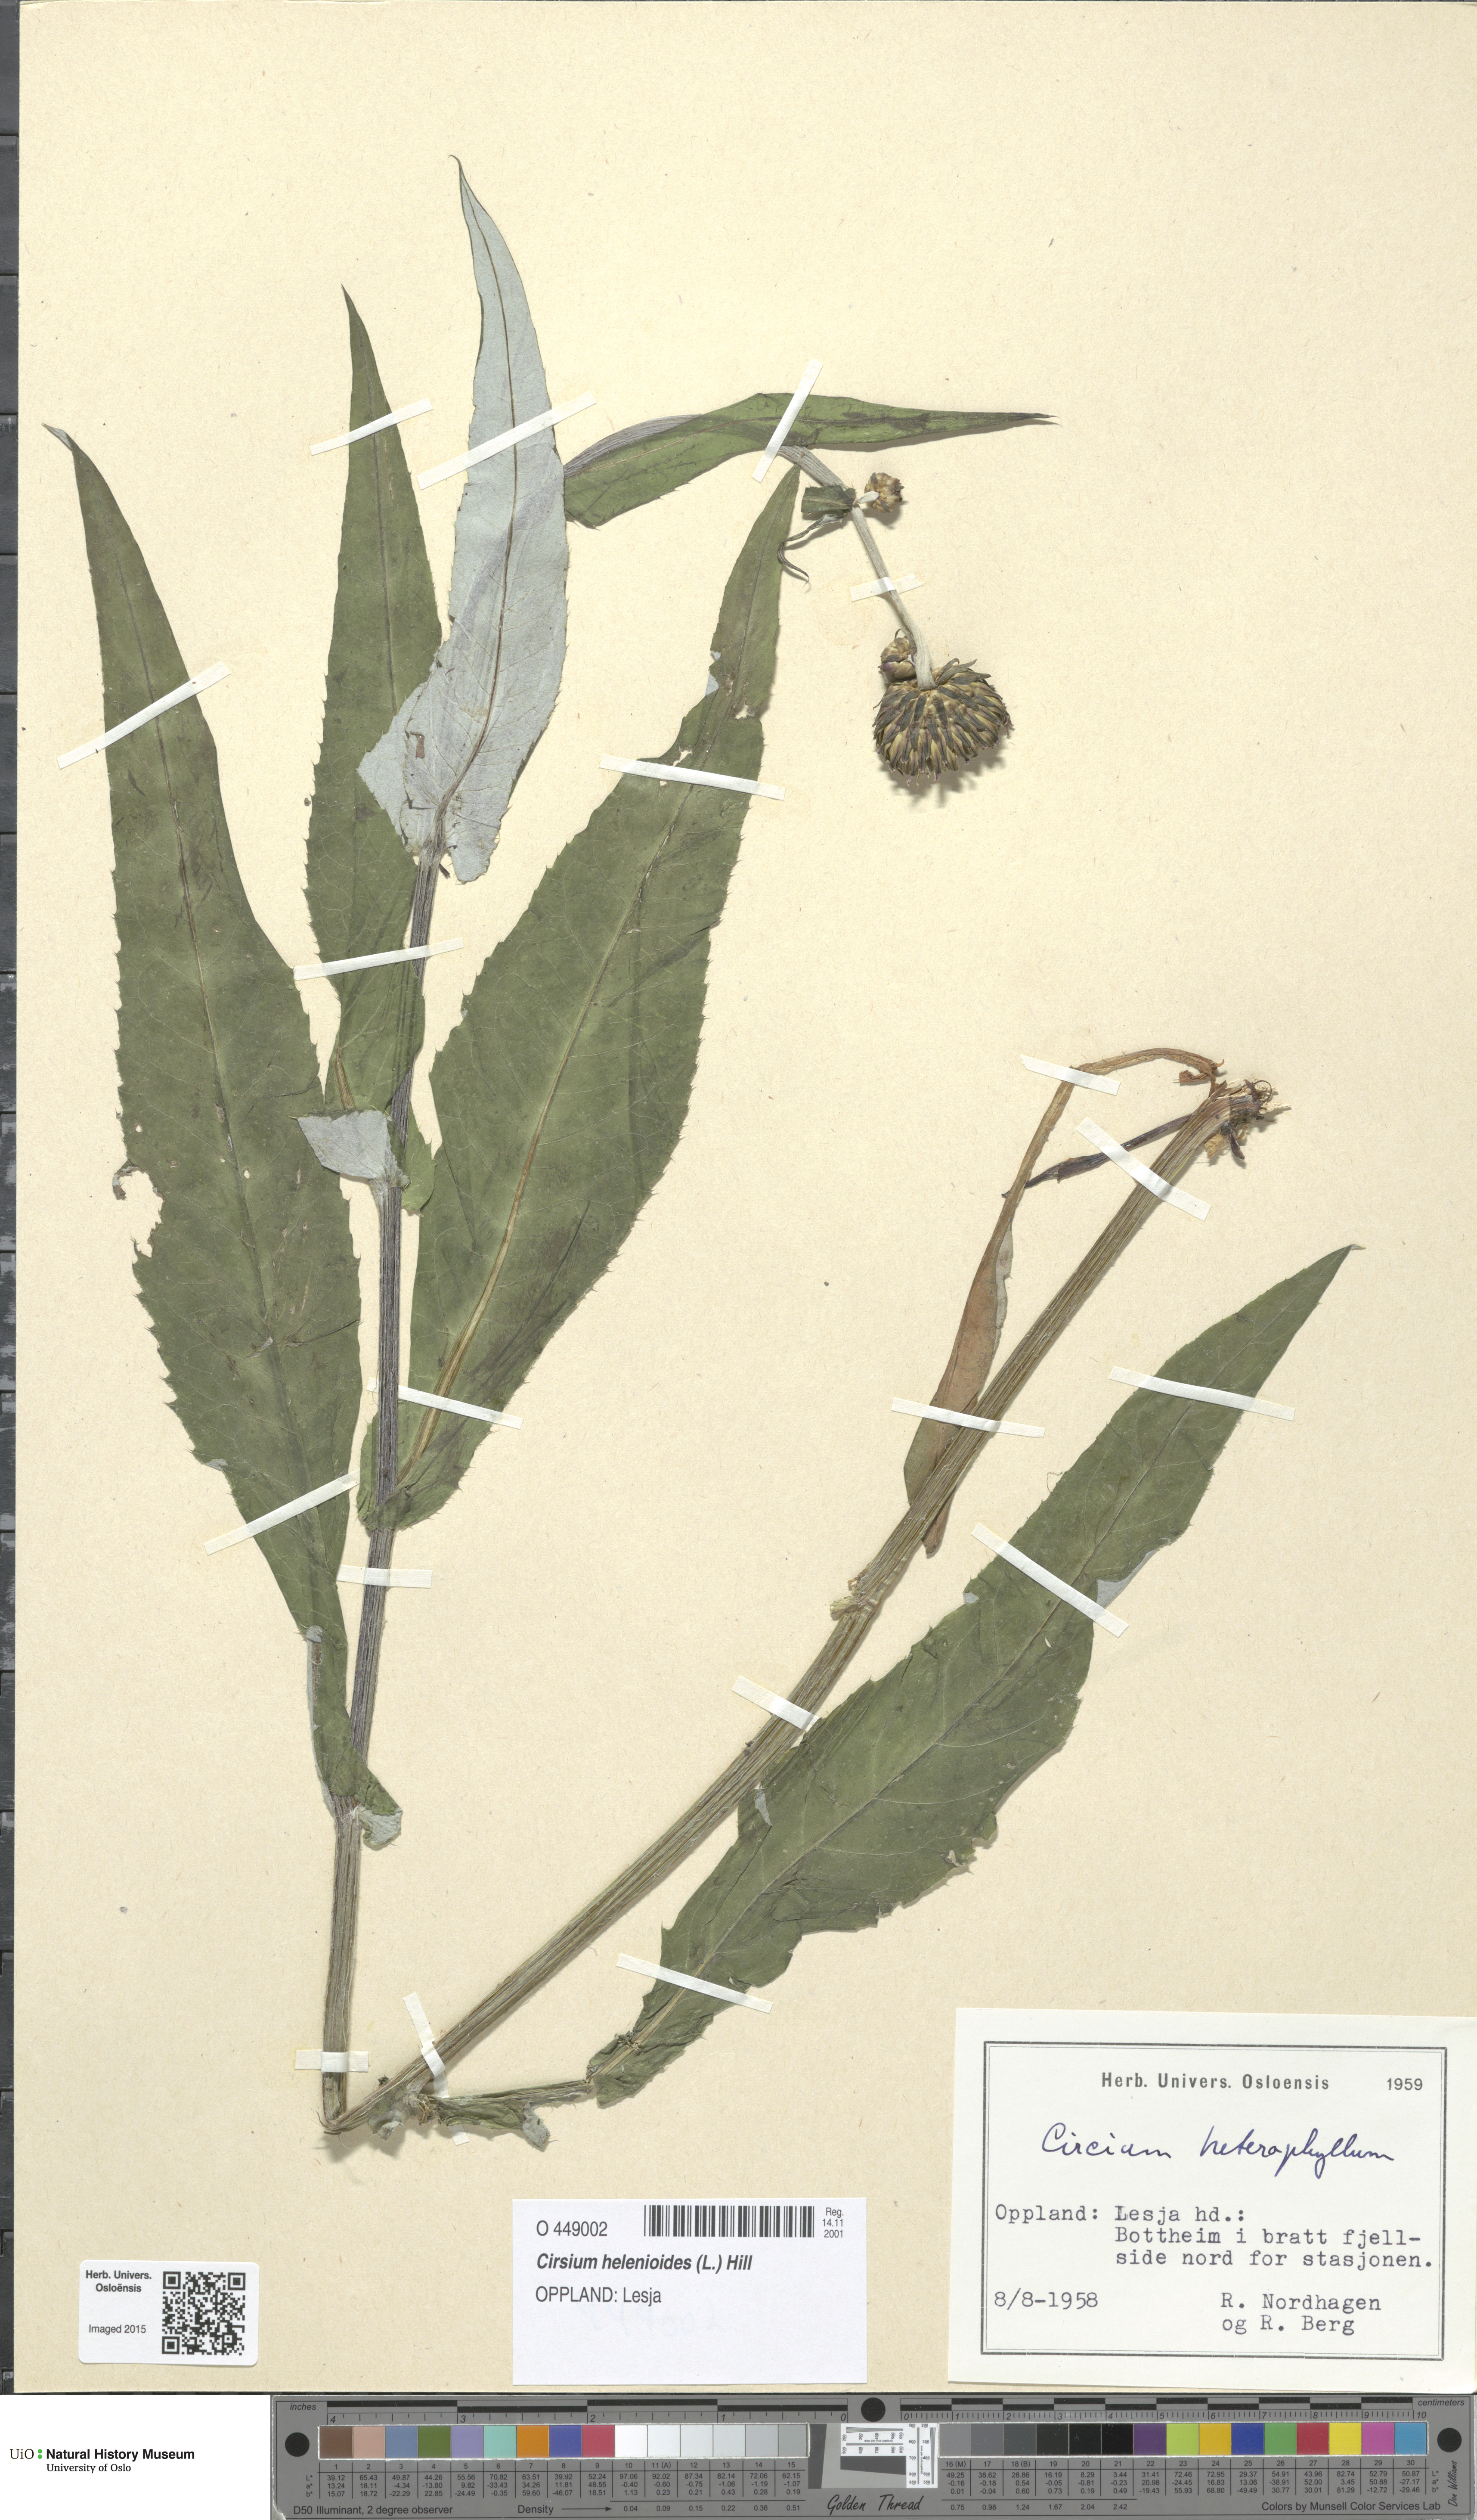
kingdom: Plantae
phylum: Tracheophyta
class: Magnoliopsida
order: Asterales
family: Asteraceae
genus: Cirsium
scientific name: Cirsium heterophyllum
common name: Melancholy thistle
